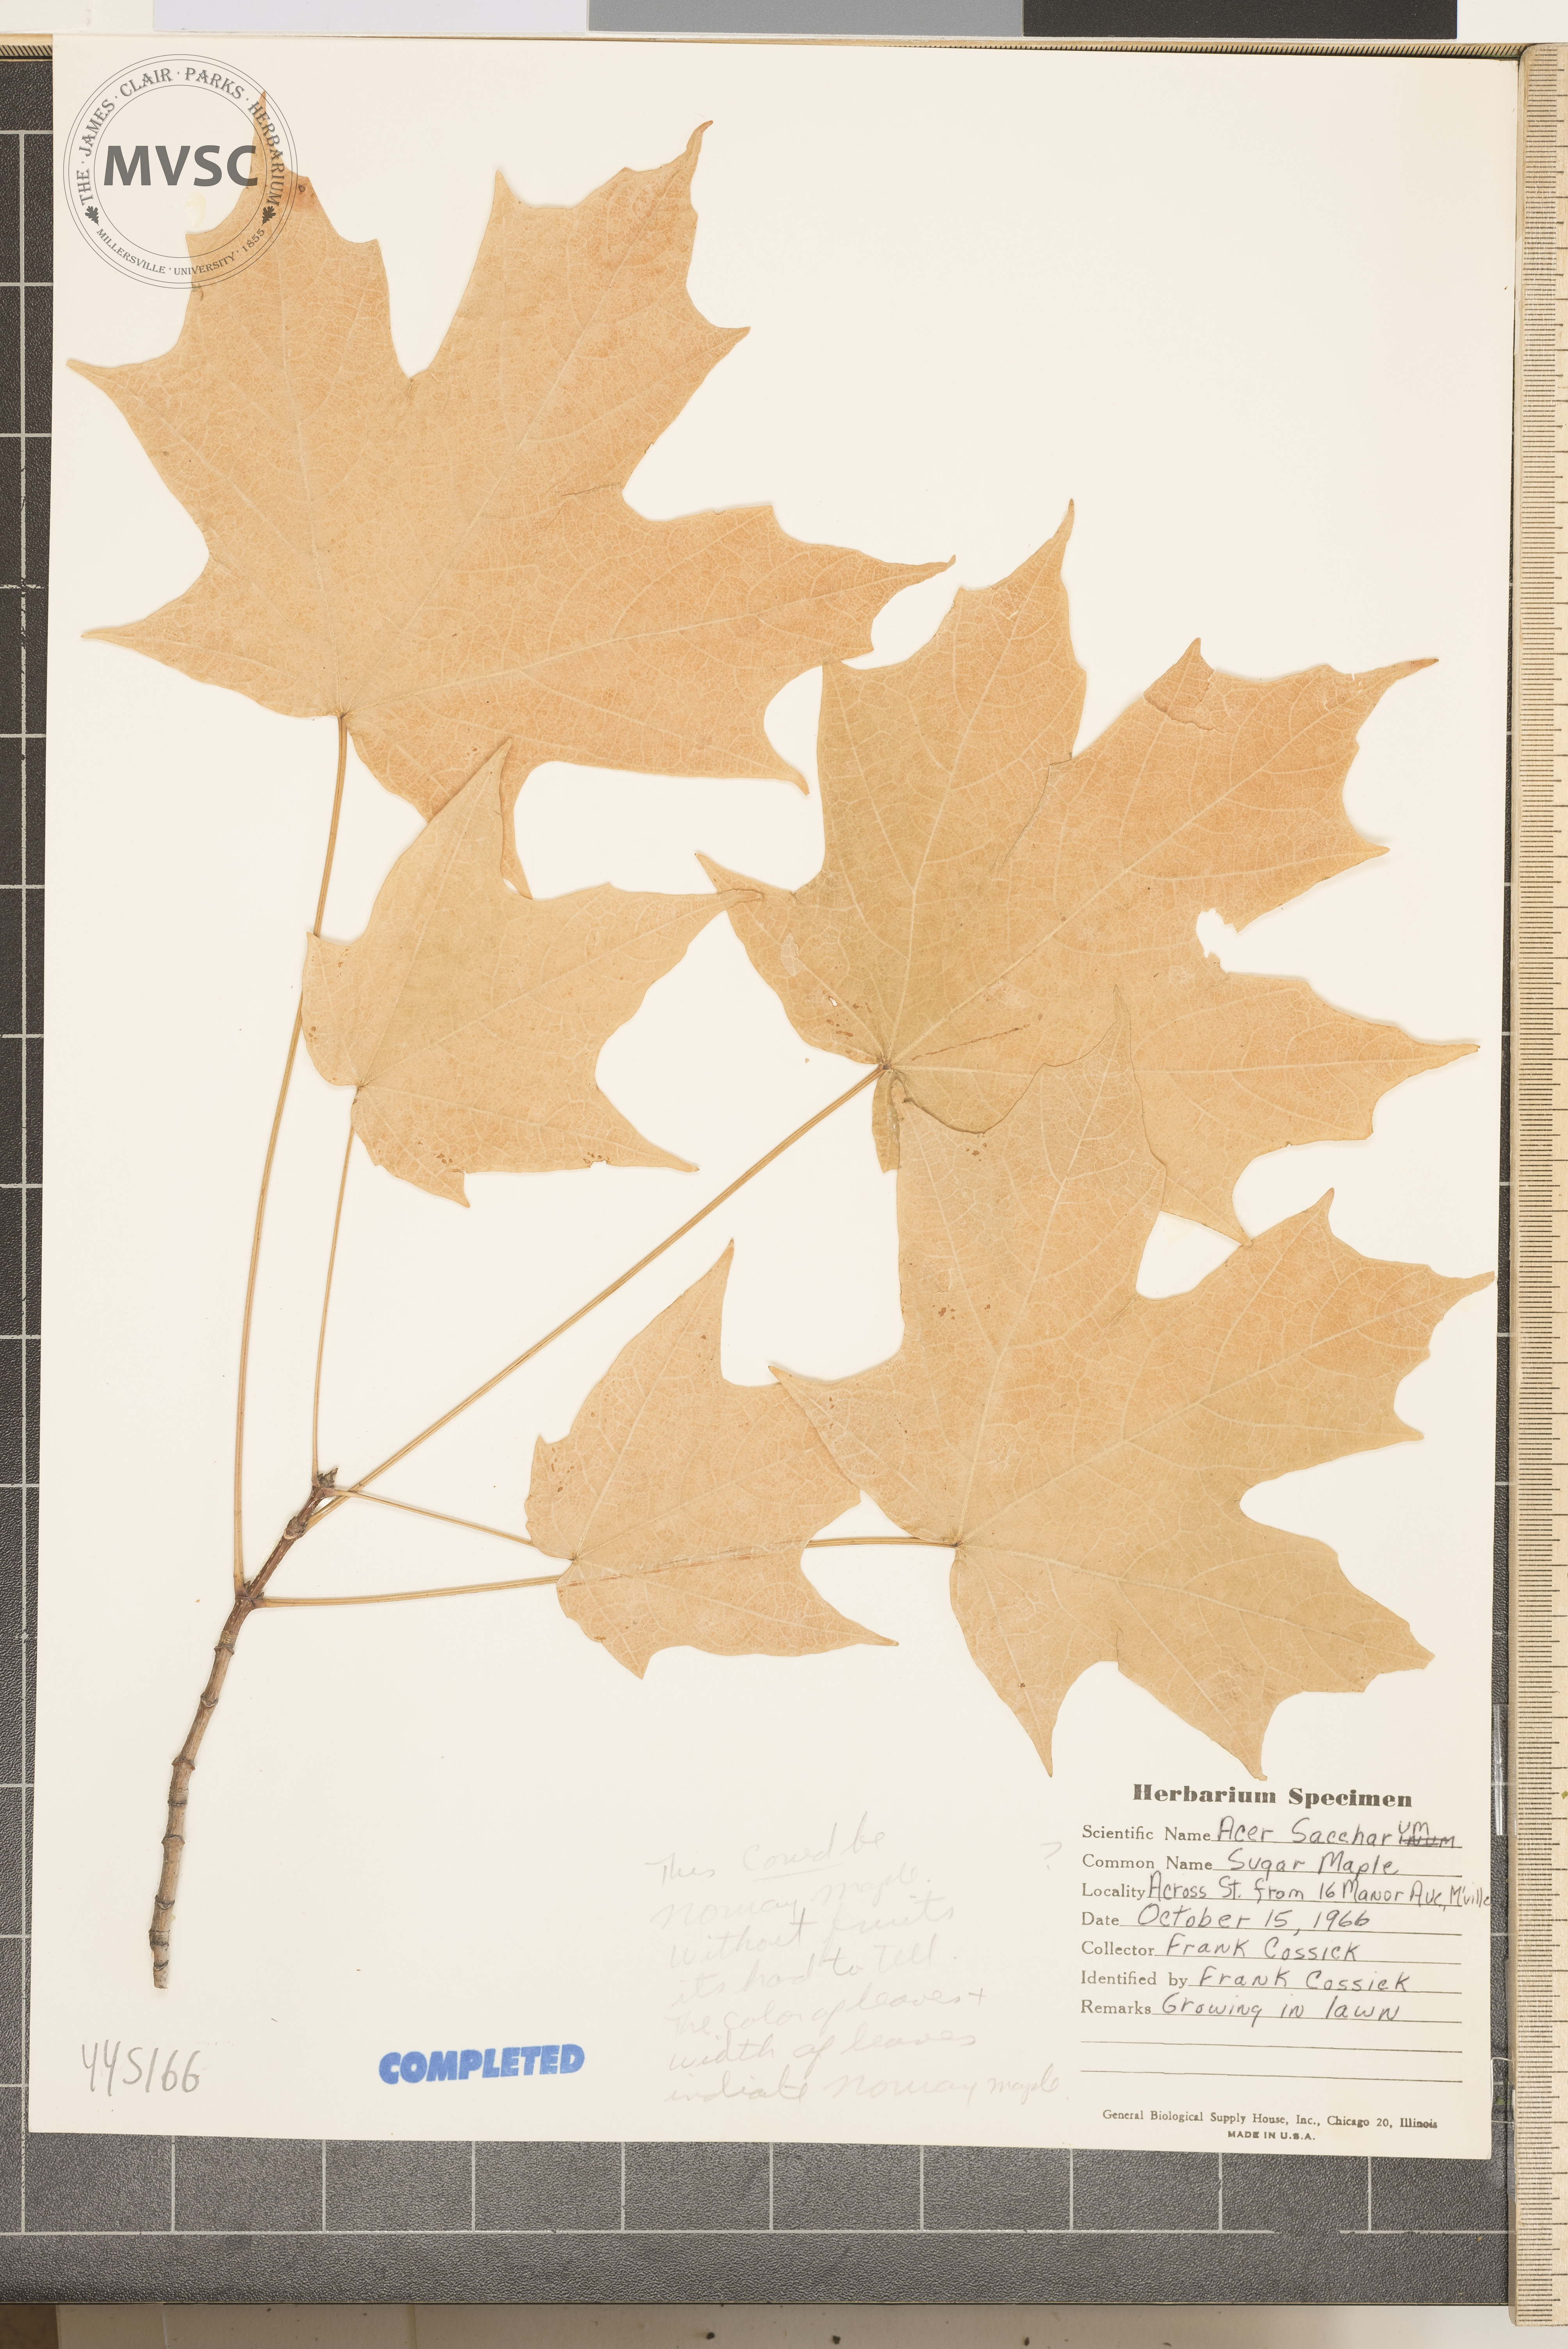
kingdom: Plantae
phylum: Tracheophyta
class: Magnoliopsida
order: Sapindales
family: Sapindaceae
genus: Acer
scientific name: Acer saccharum
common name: Sugar maple
